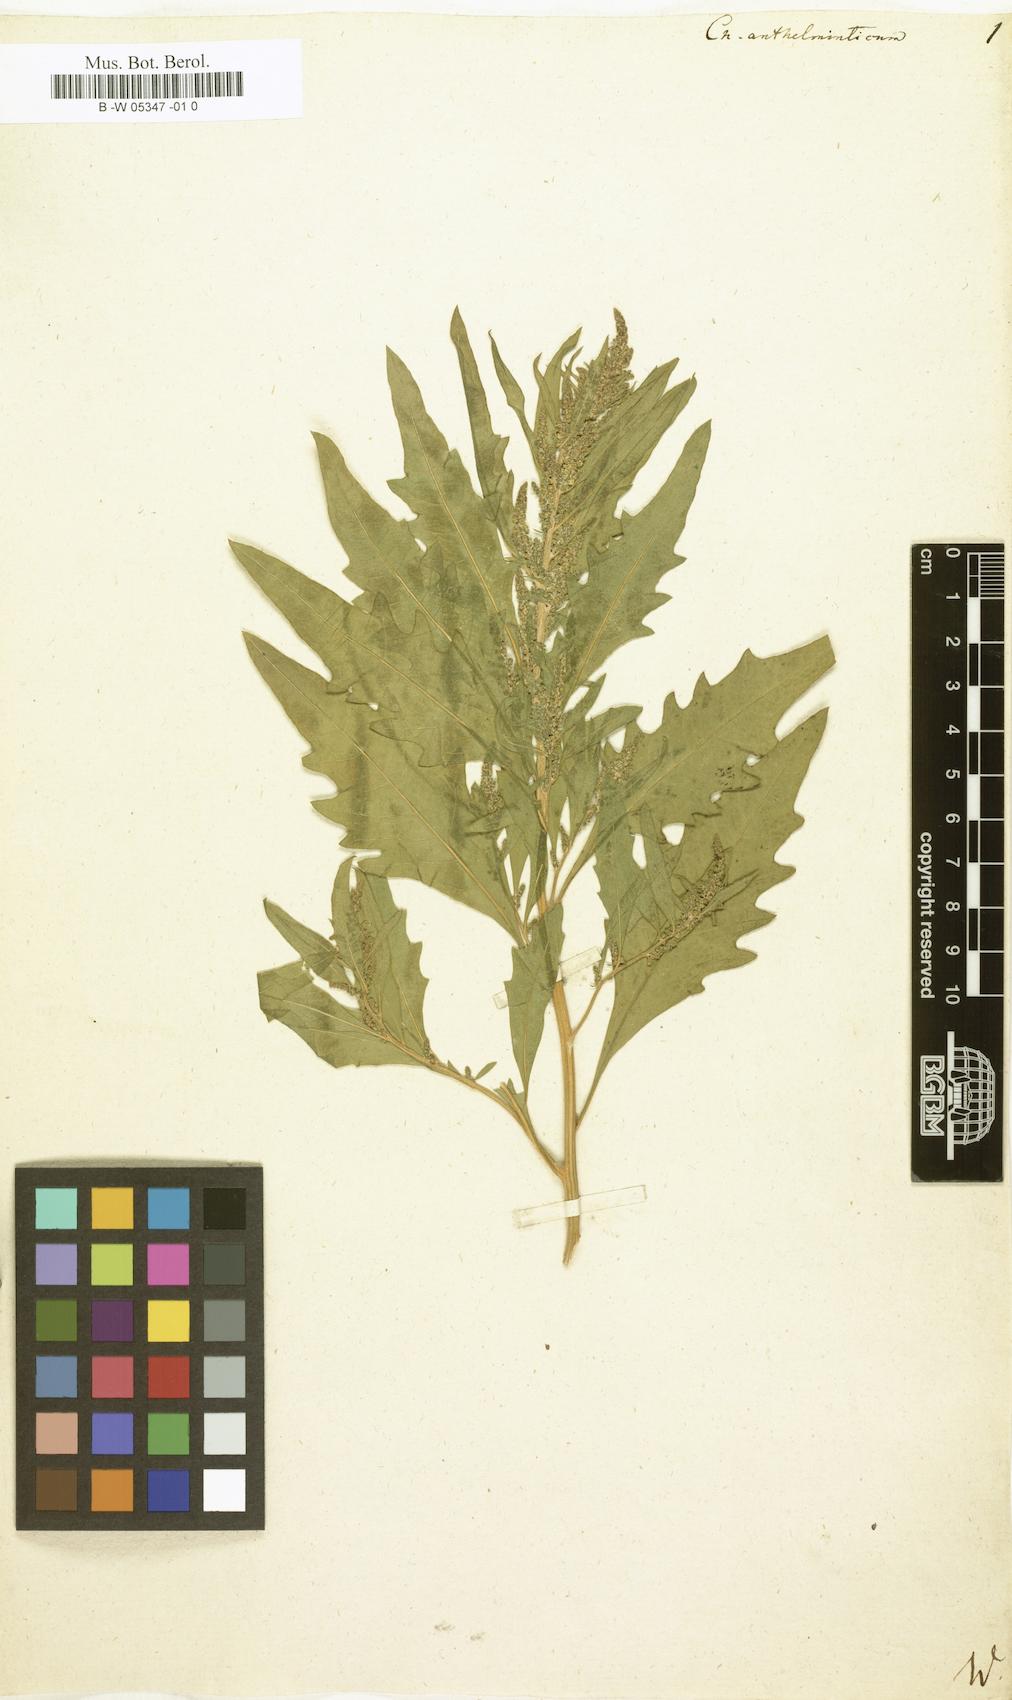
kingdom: Plantae
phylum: Tracheophyta
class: Magnoliopsida
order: Caryophyllales
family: Amaranthaceae
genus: Dysphania
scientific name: Dysphania anthelmintica
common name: Wormseed
